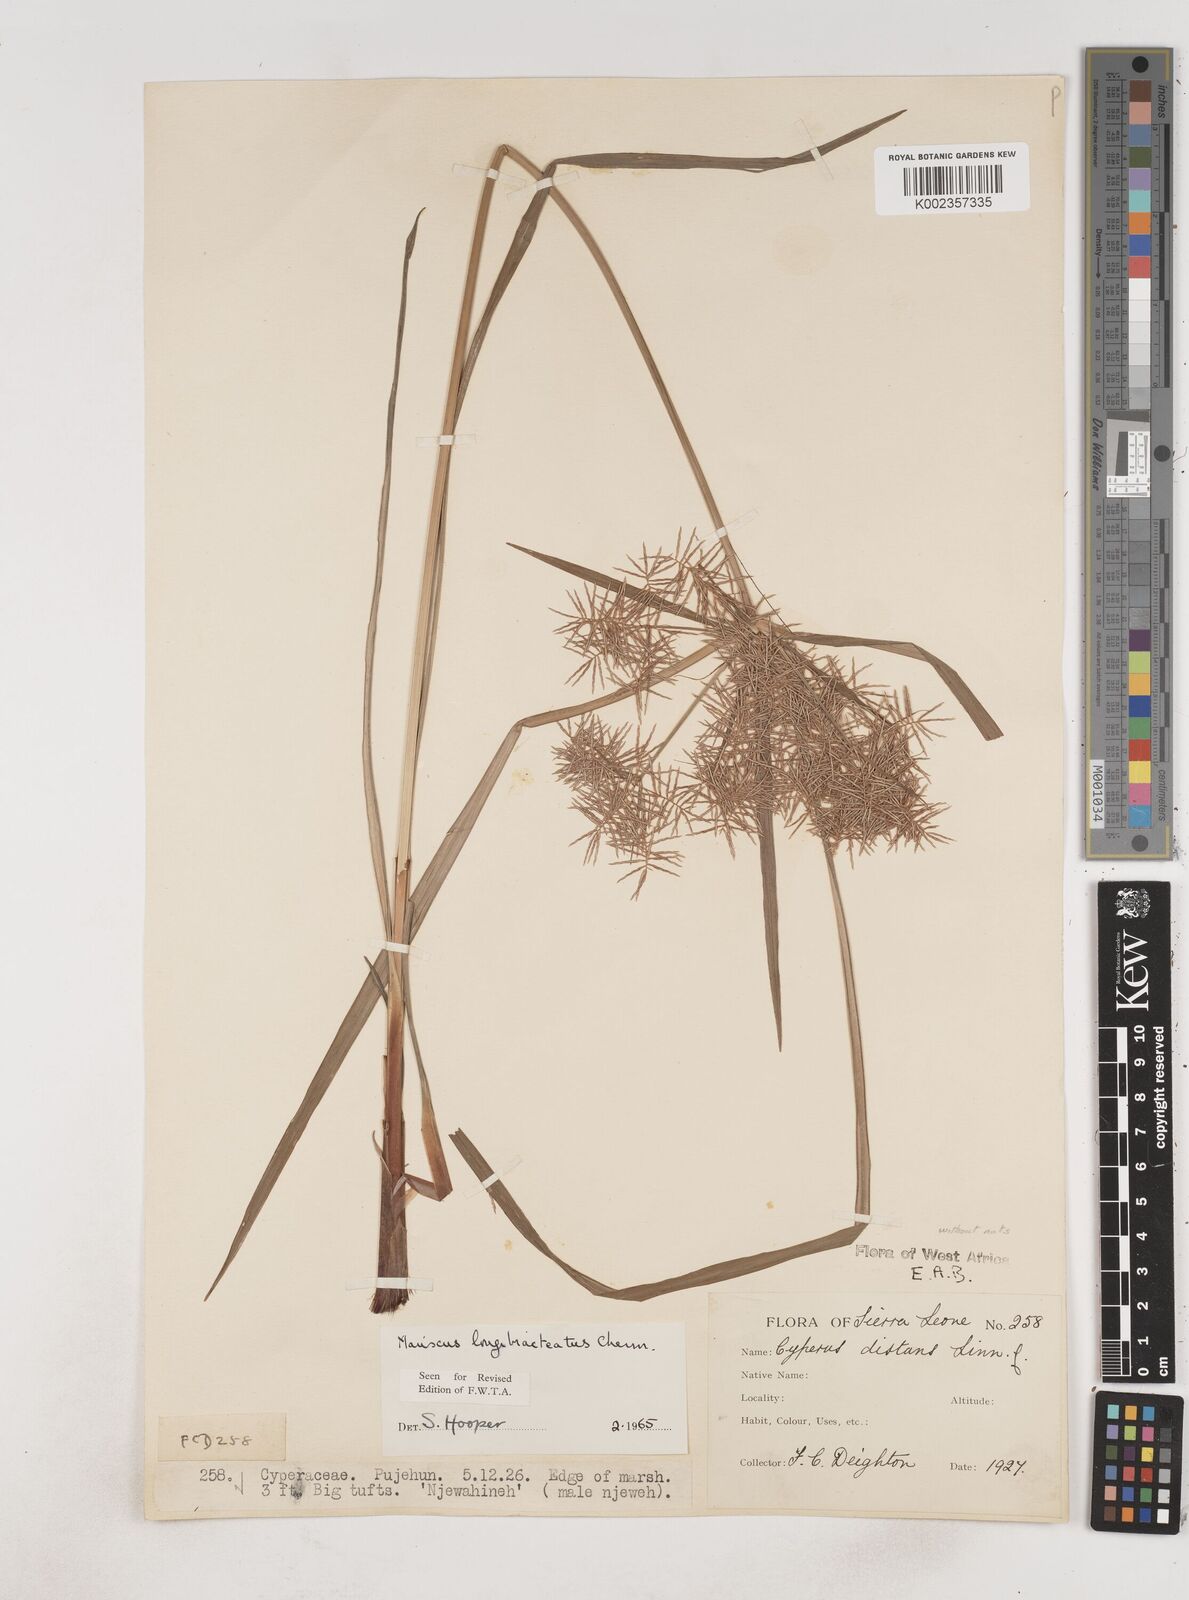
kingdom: Plantae
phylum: Tracheophyta
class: Liliopsida
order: Poales
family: Cyperaceae
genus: Cyperus
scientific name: Cyperus distans
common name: Slender cyperus
